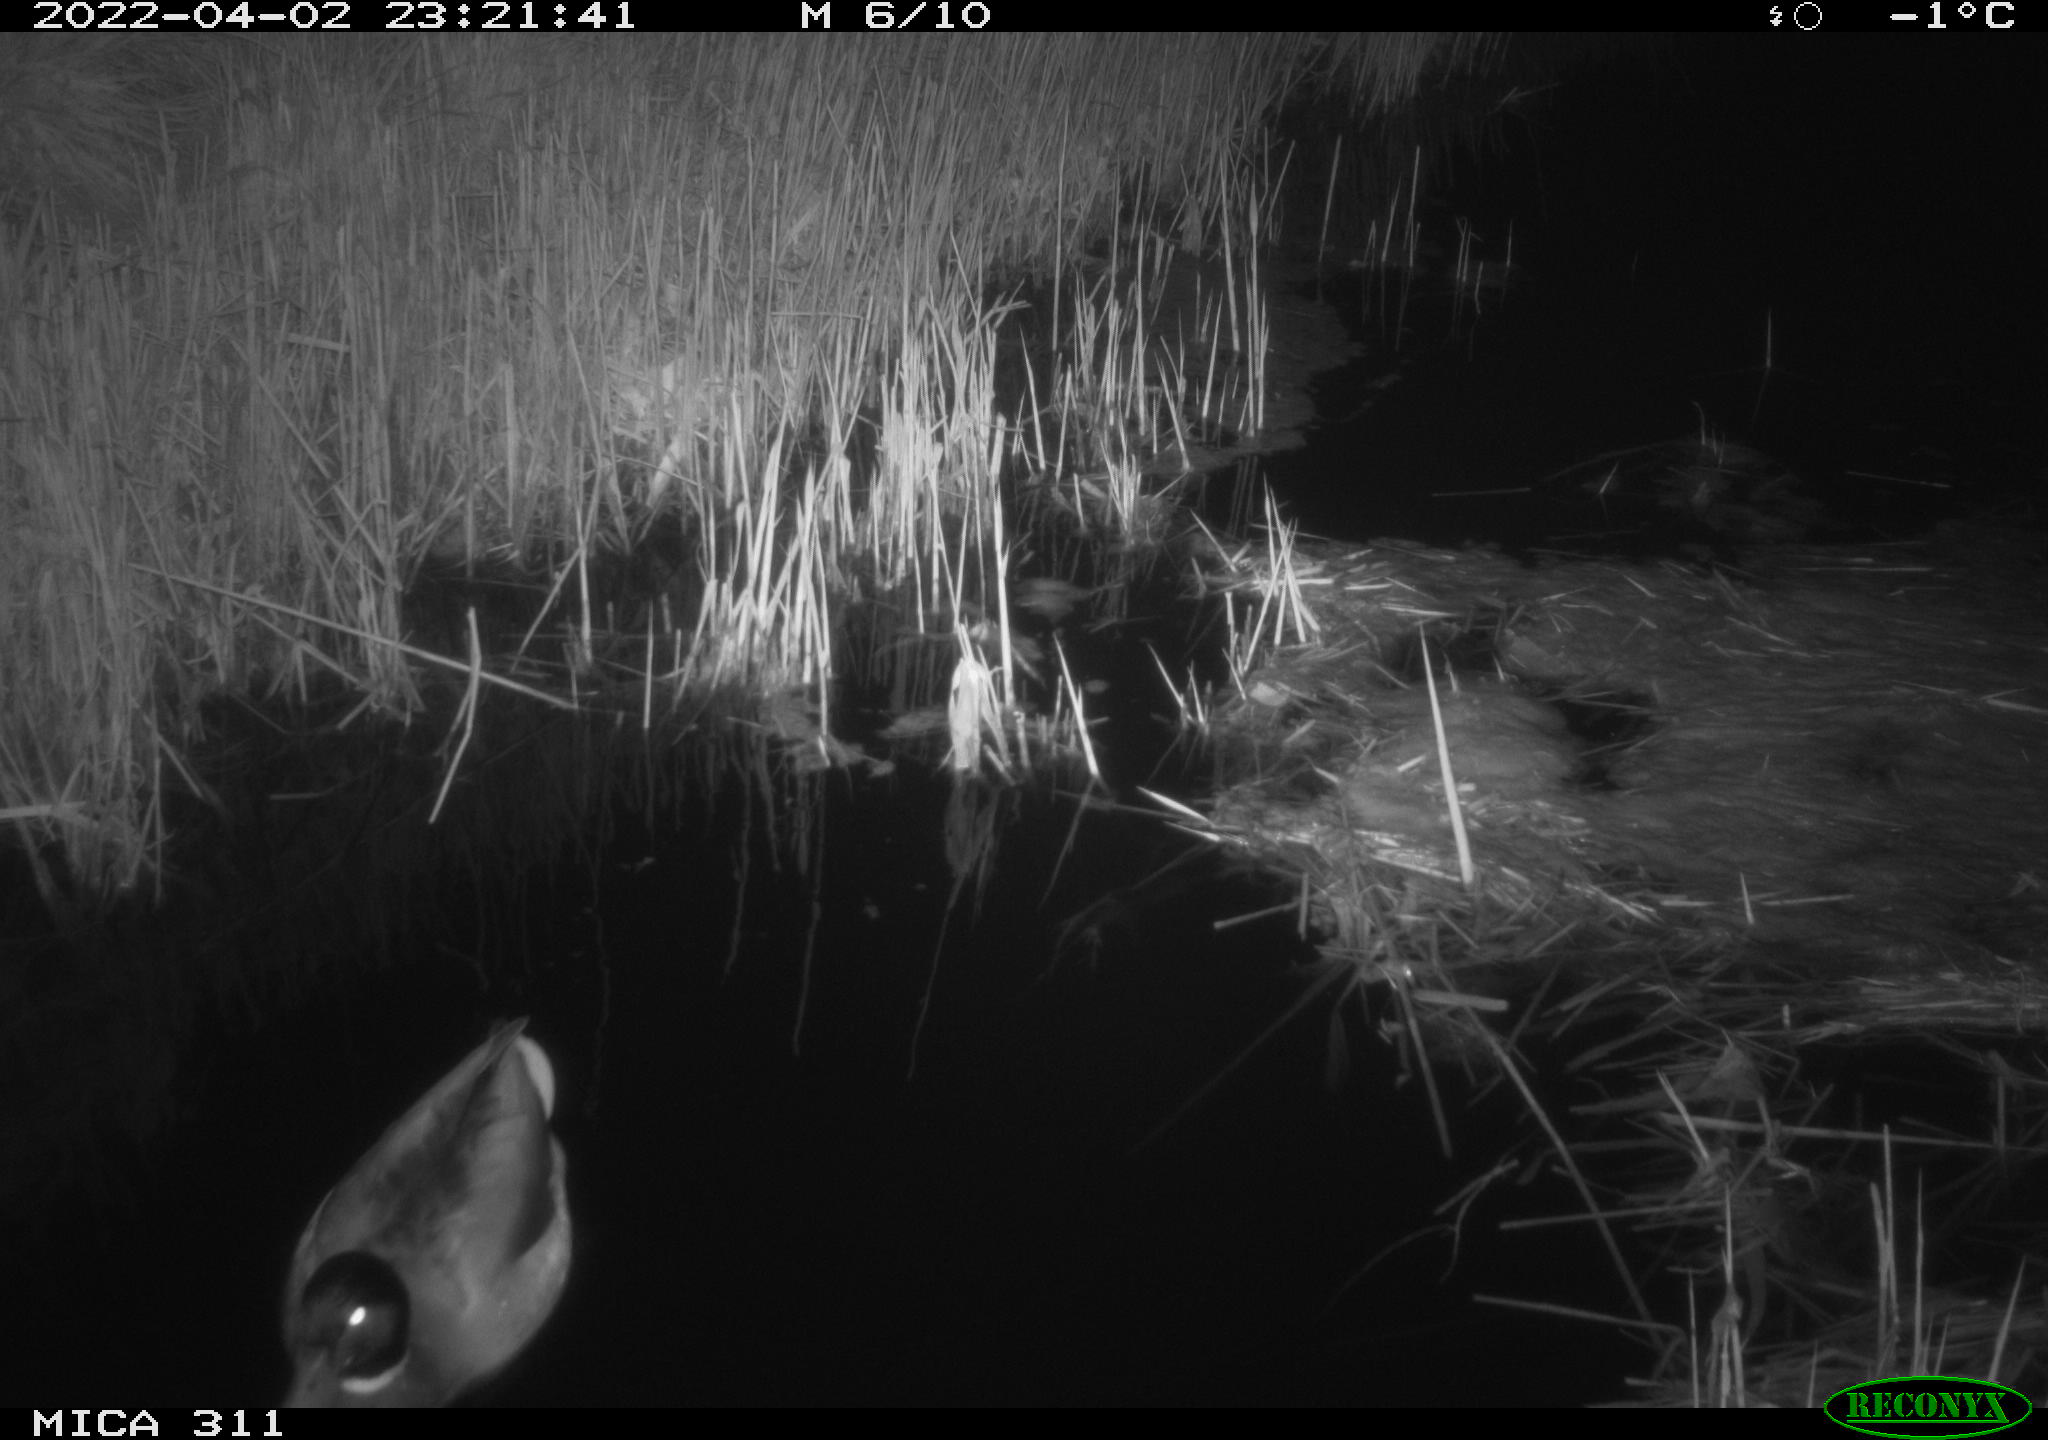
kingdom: Animalia
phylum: Chordata
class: Aves
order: Anseriformes
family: Anatidae
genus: Anas
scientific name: Anas
